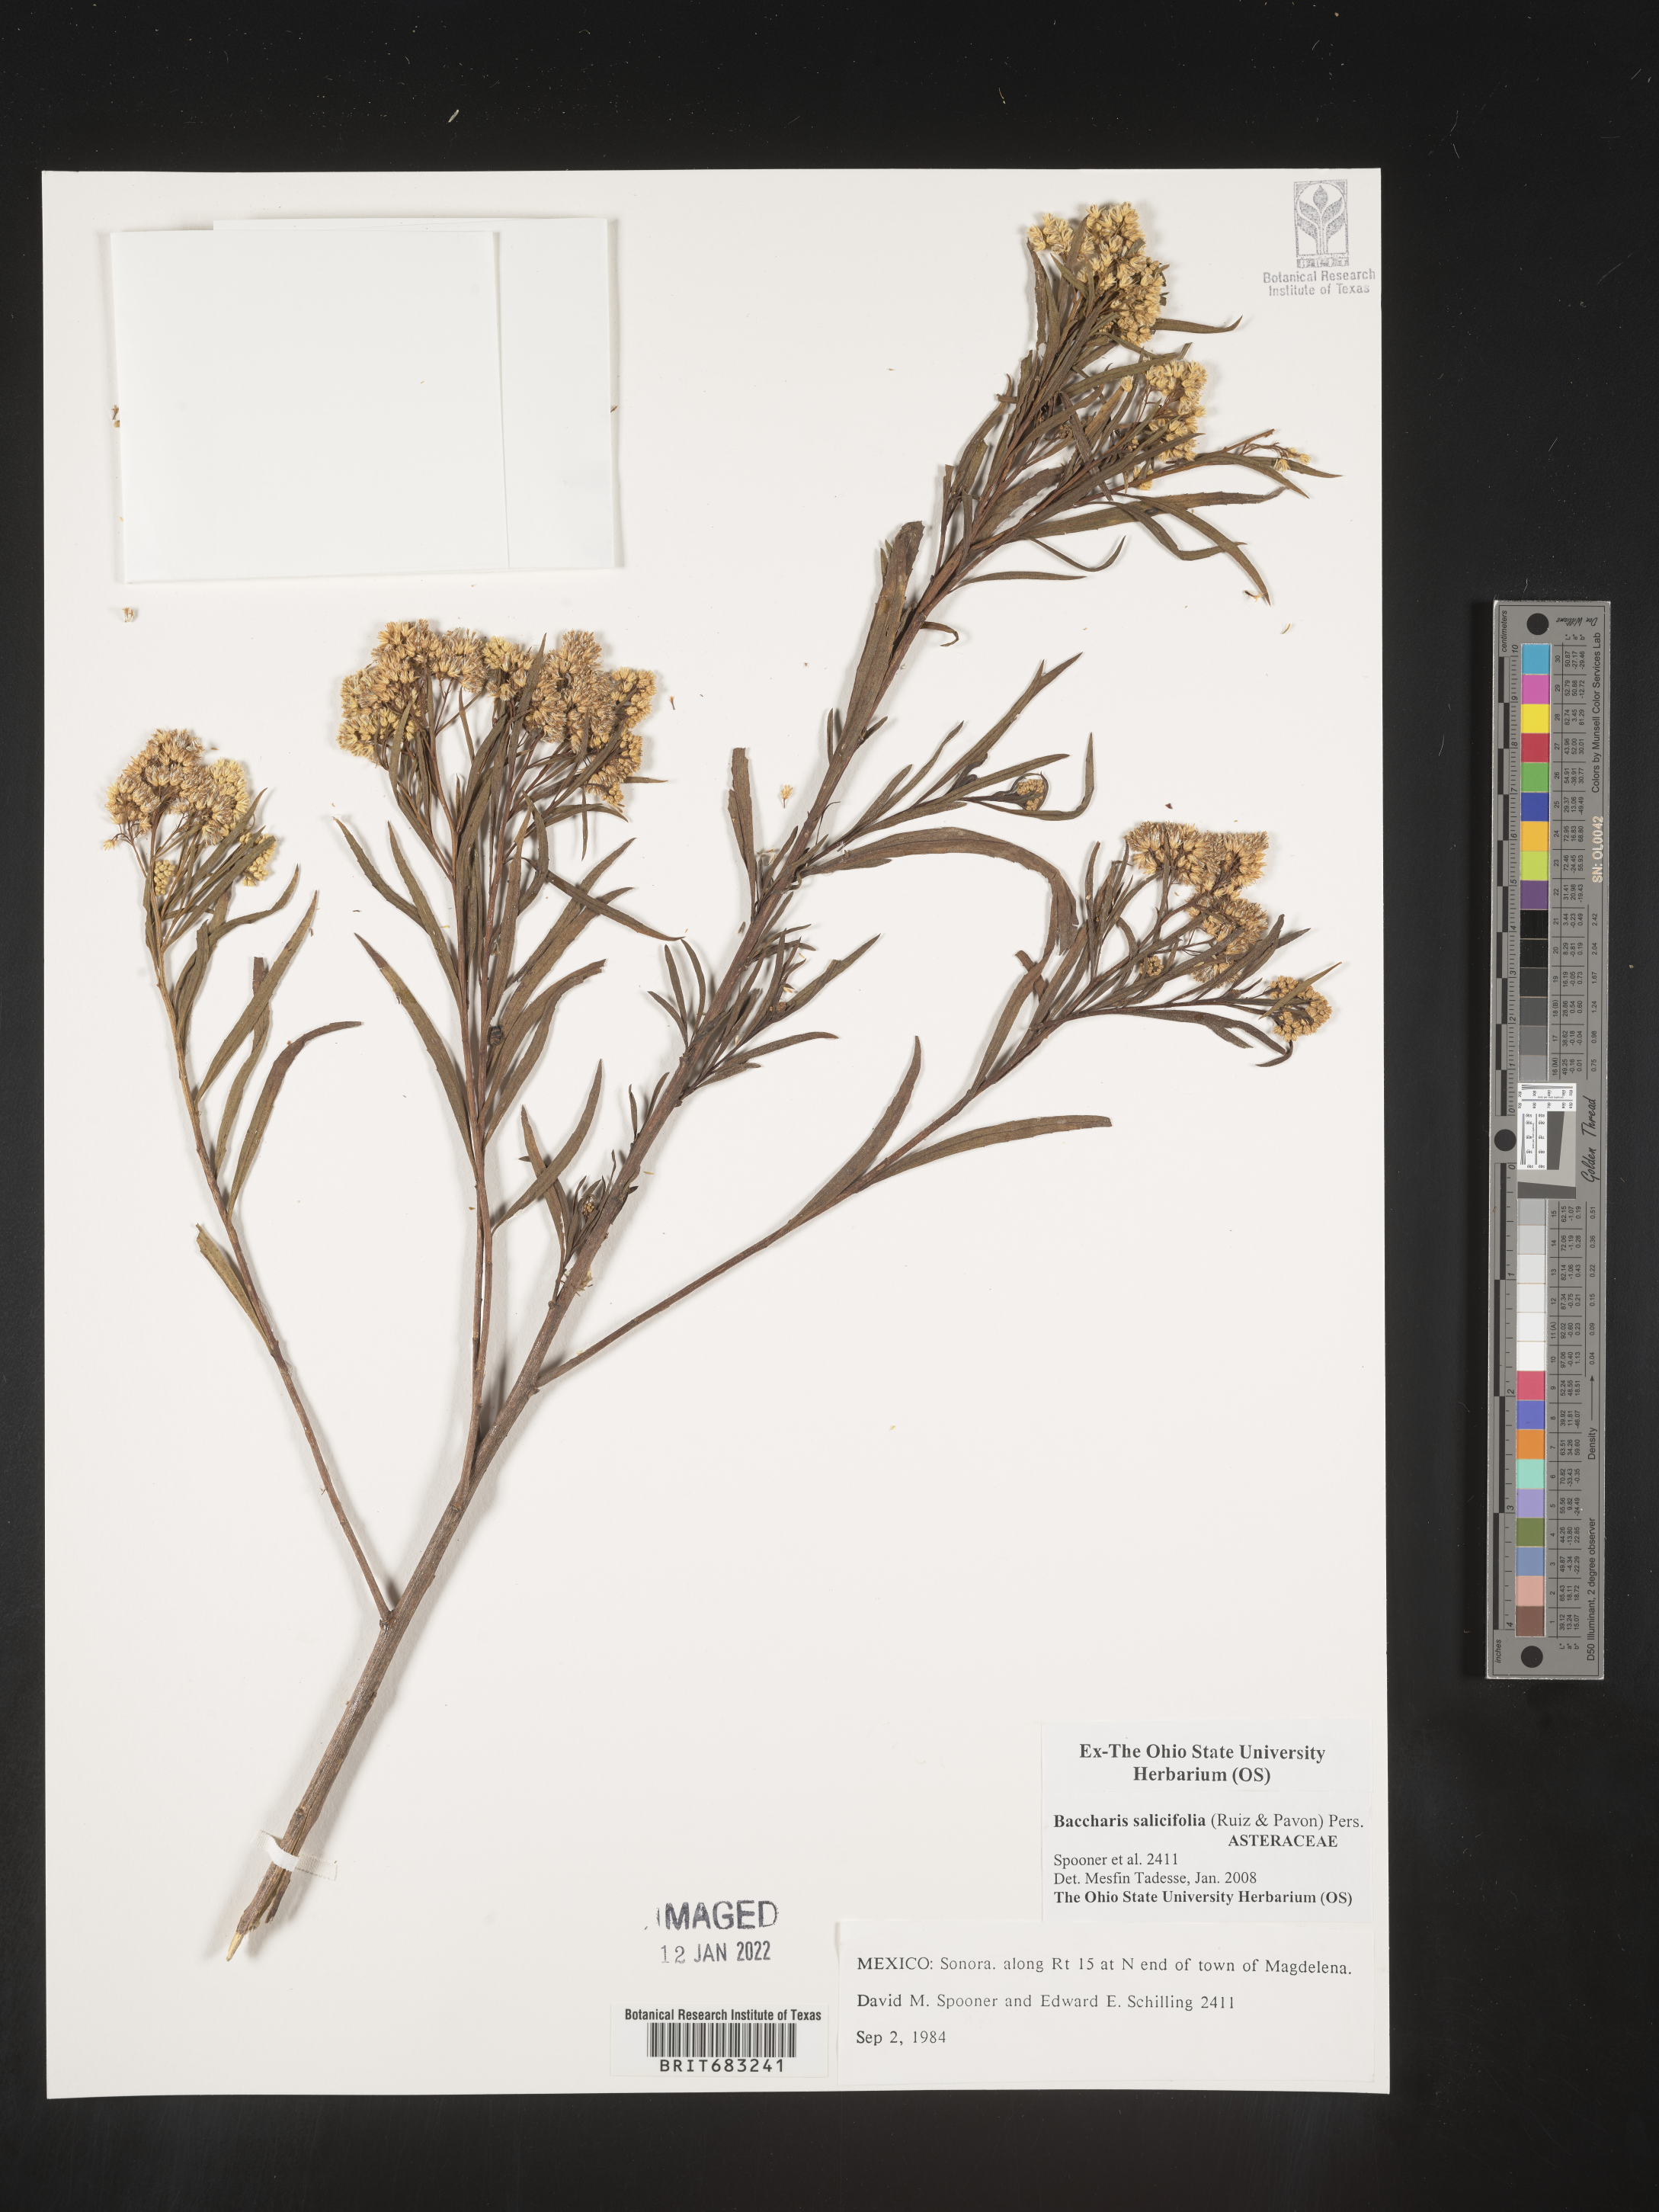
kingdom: Plantae
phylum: Tracheophyta
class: Magnoliopsida
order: Asterales
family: Asteraceae
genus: Baccharis
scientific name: Baccharis salicifolia
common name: Sticky baccharis
